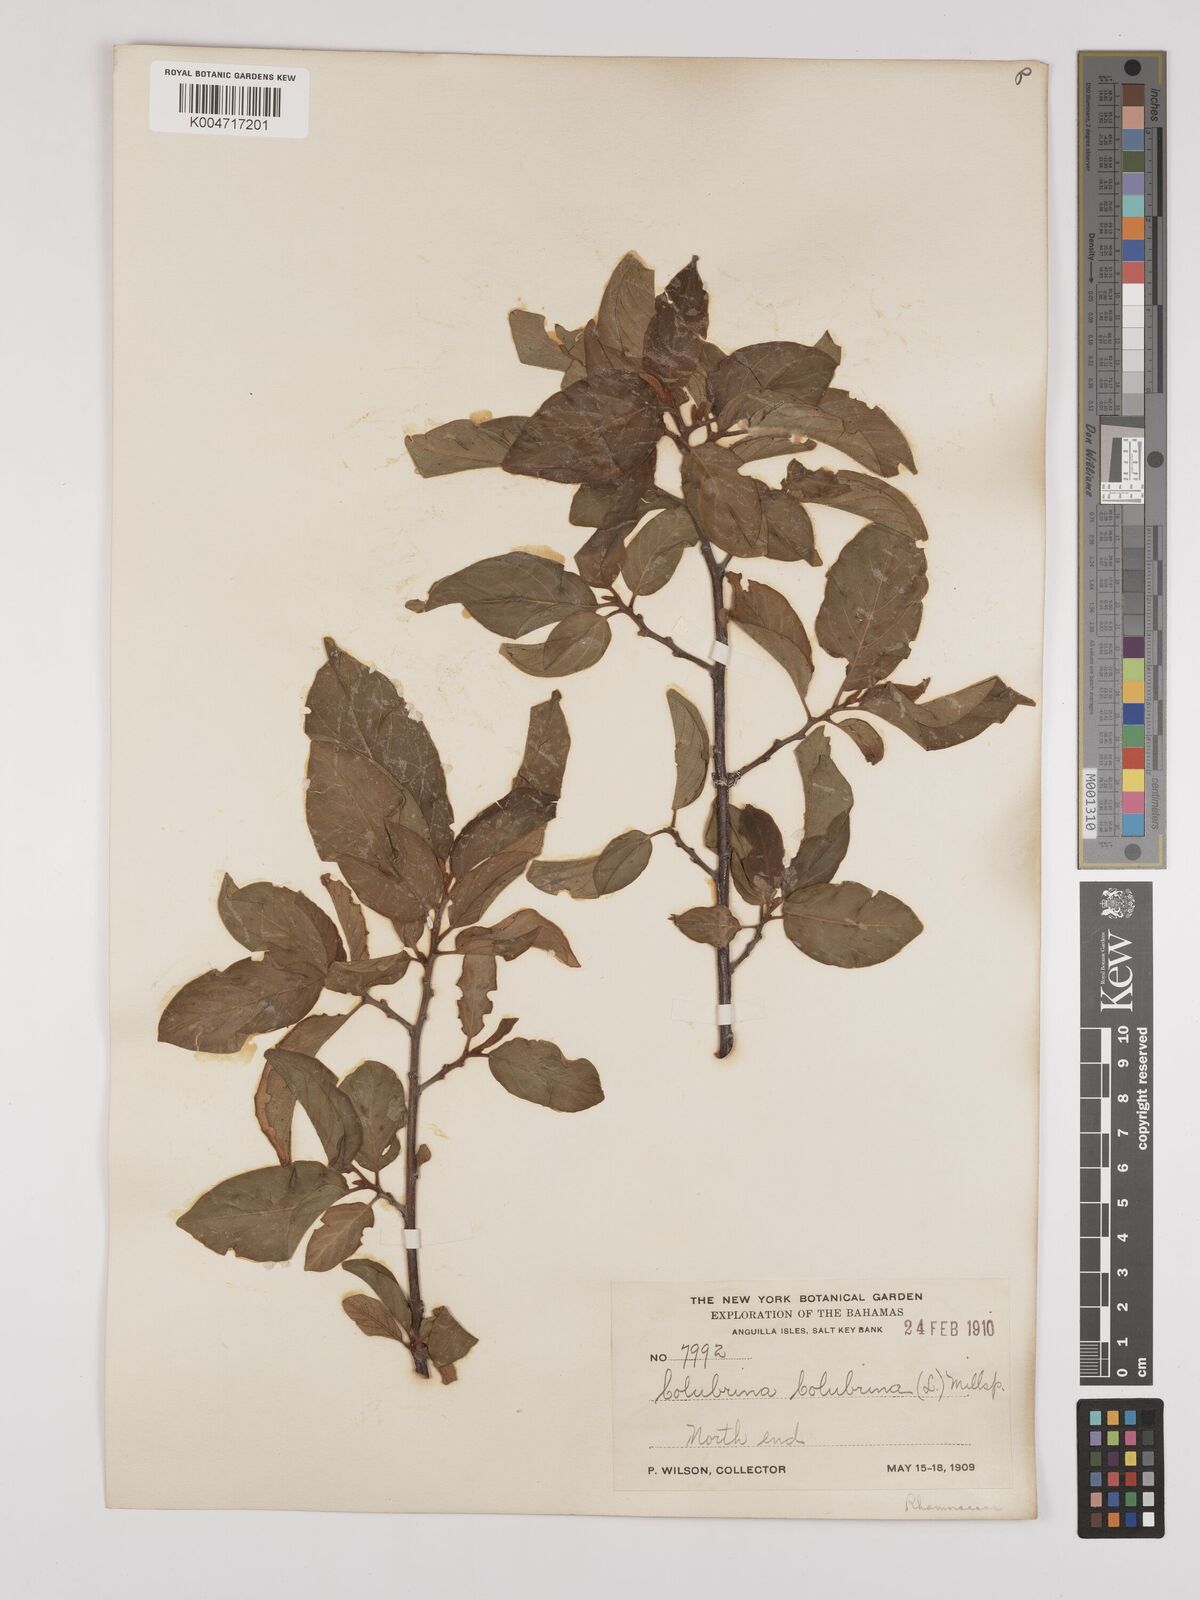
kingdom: Plantae
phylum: Tracheophyta
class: Magnoliopsida
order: Rosales
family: Rhamnaceae
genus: Colubrina
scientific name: Colubrina arborescens
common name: Wild coffee
